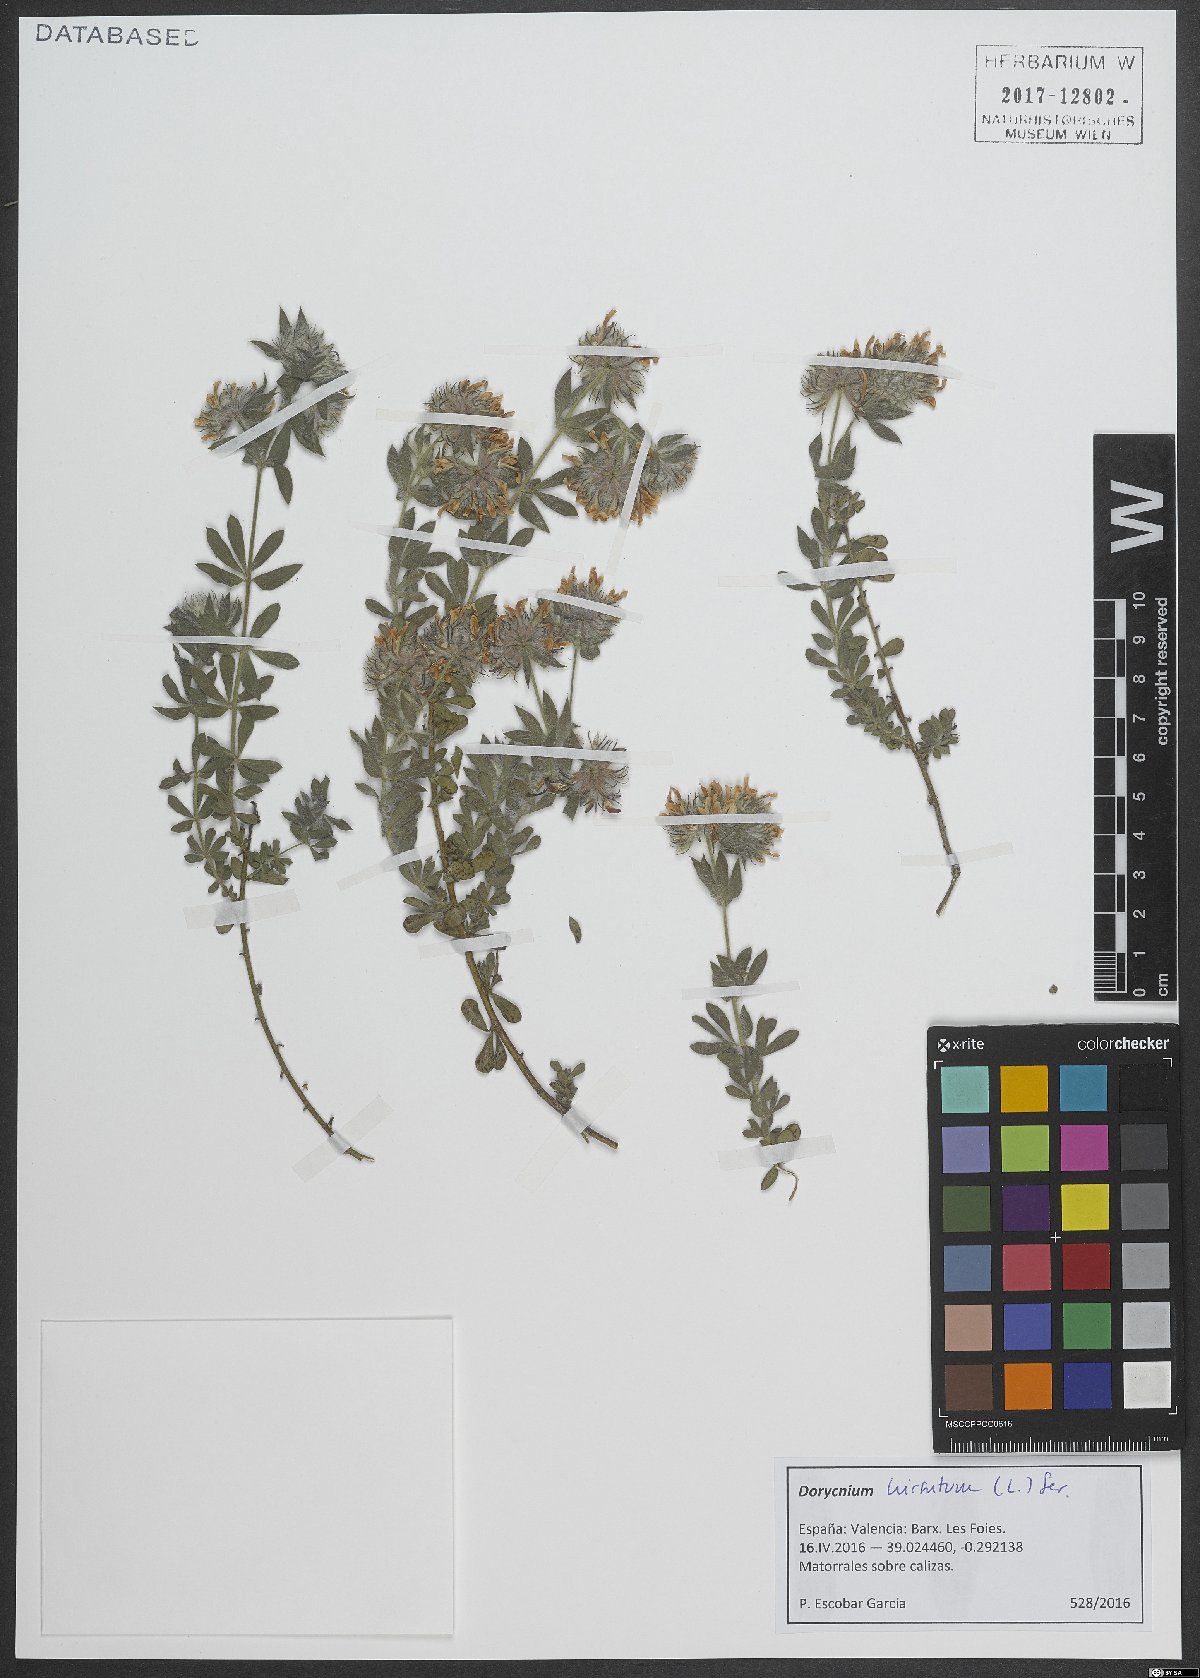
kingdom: Plantae
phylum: Tracheophyta
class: Magnoliopsida
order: Fabales
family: Fabaceae
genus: Lotus
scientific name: Lotus hirsutus
